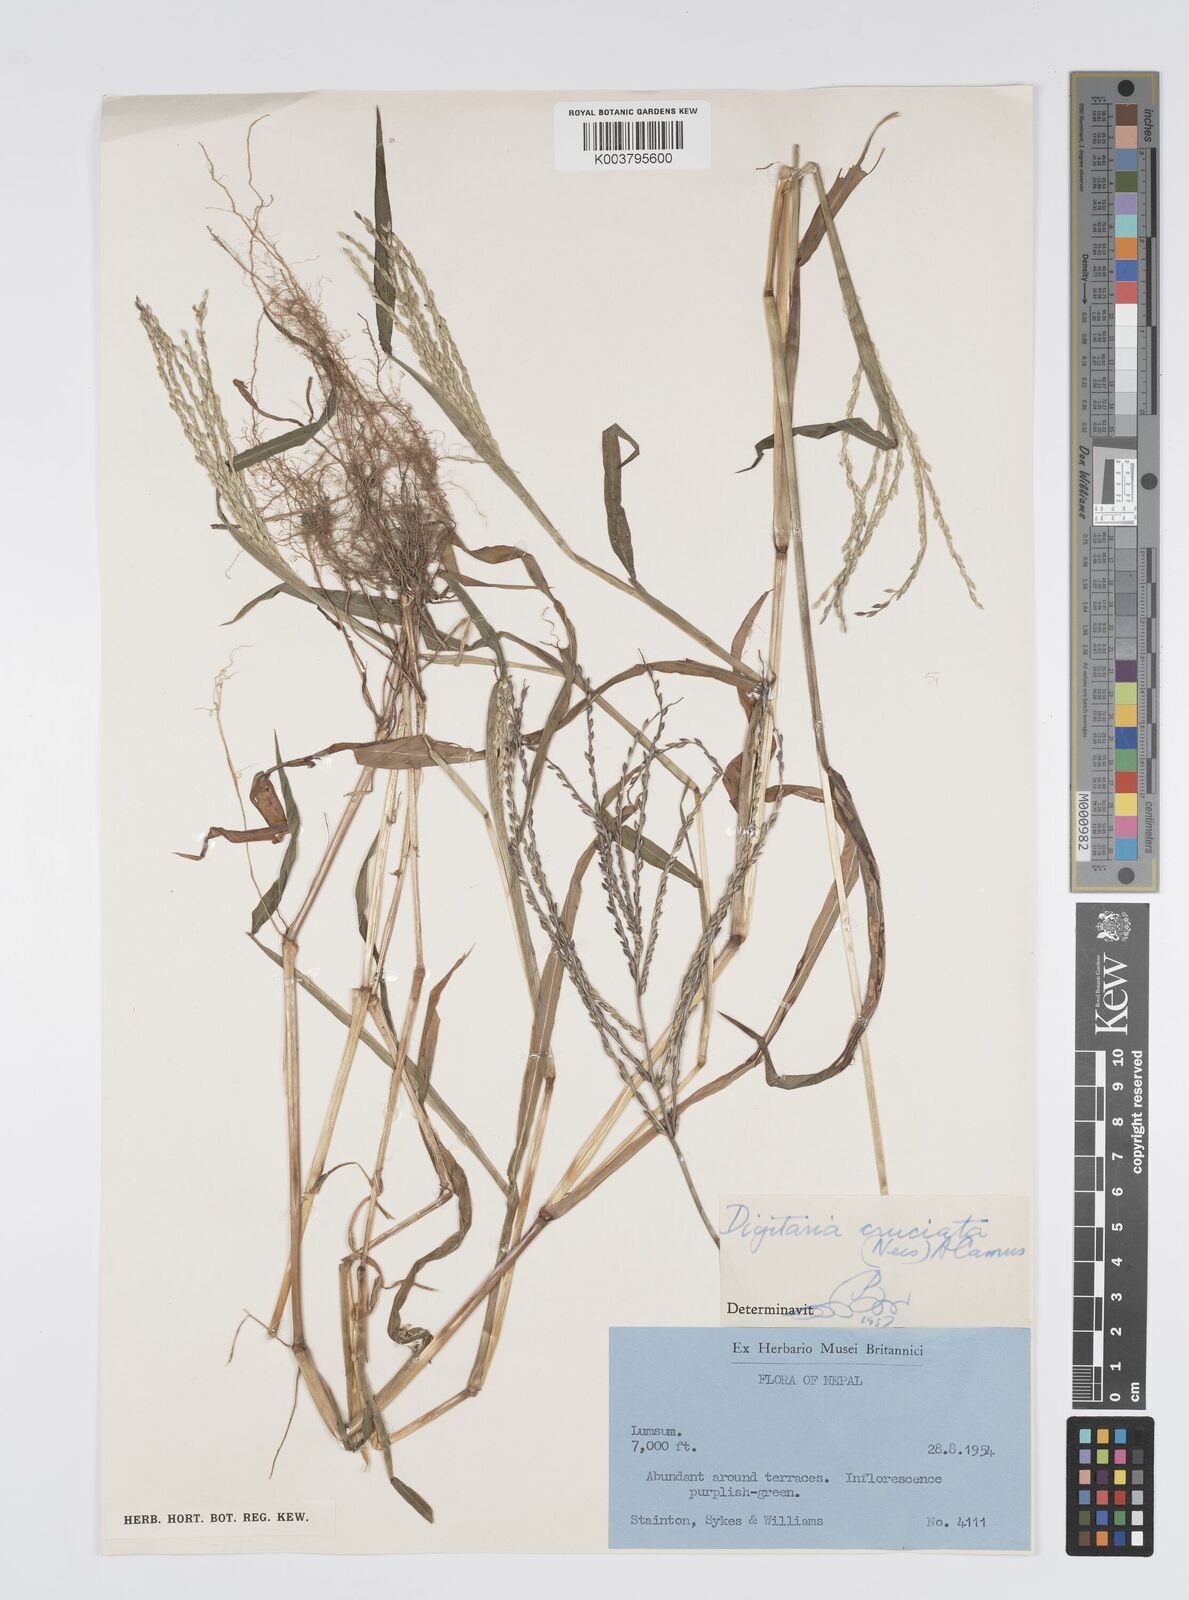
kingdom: Plantae
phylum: Tracheophyta
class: Liliopsida
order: Poales
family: Poaceae
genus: Digitaria
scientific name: Digitaria sanguinalis
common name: Hairy crabgrass
